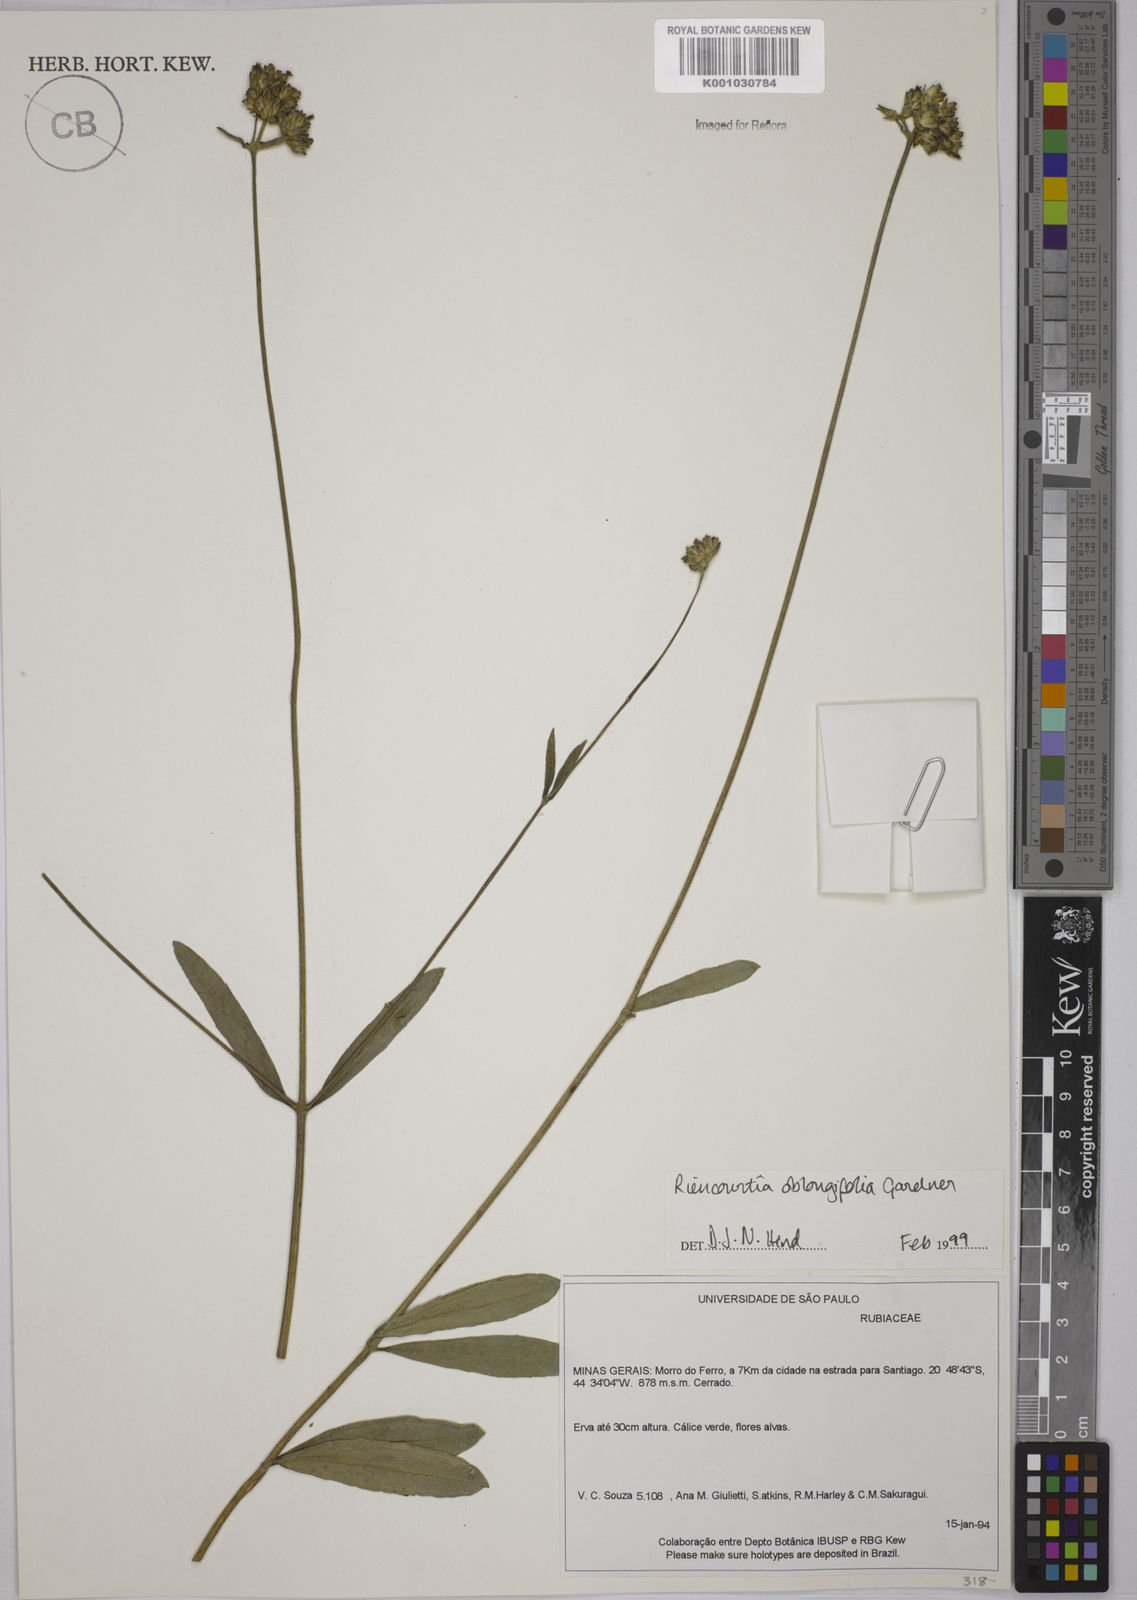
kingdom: Plantae
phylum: Tracheophyta
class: Magnoliopsida
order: Asterales
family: Asteraceae
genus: Riencourtia
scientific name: Riencourtia oblongifolia
